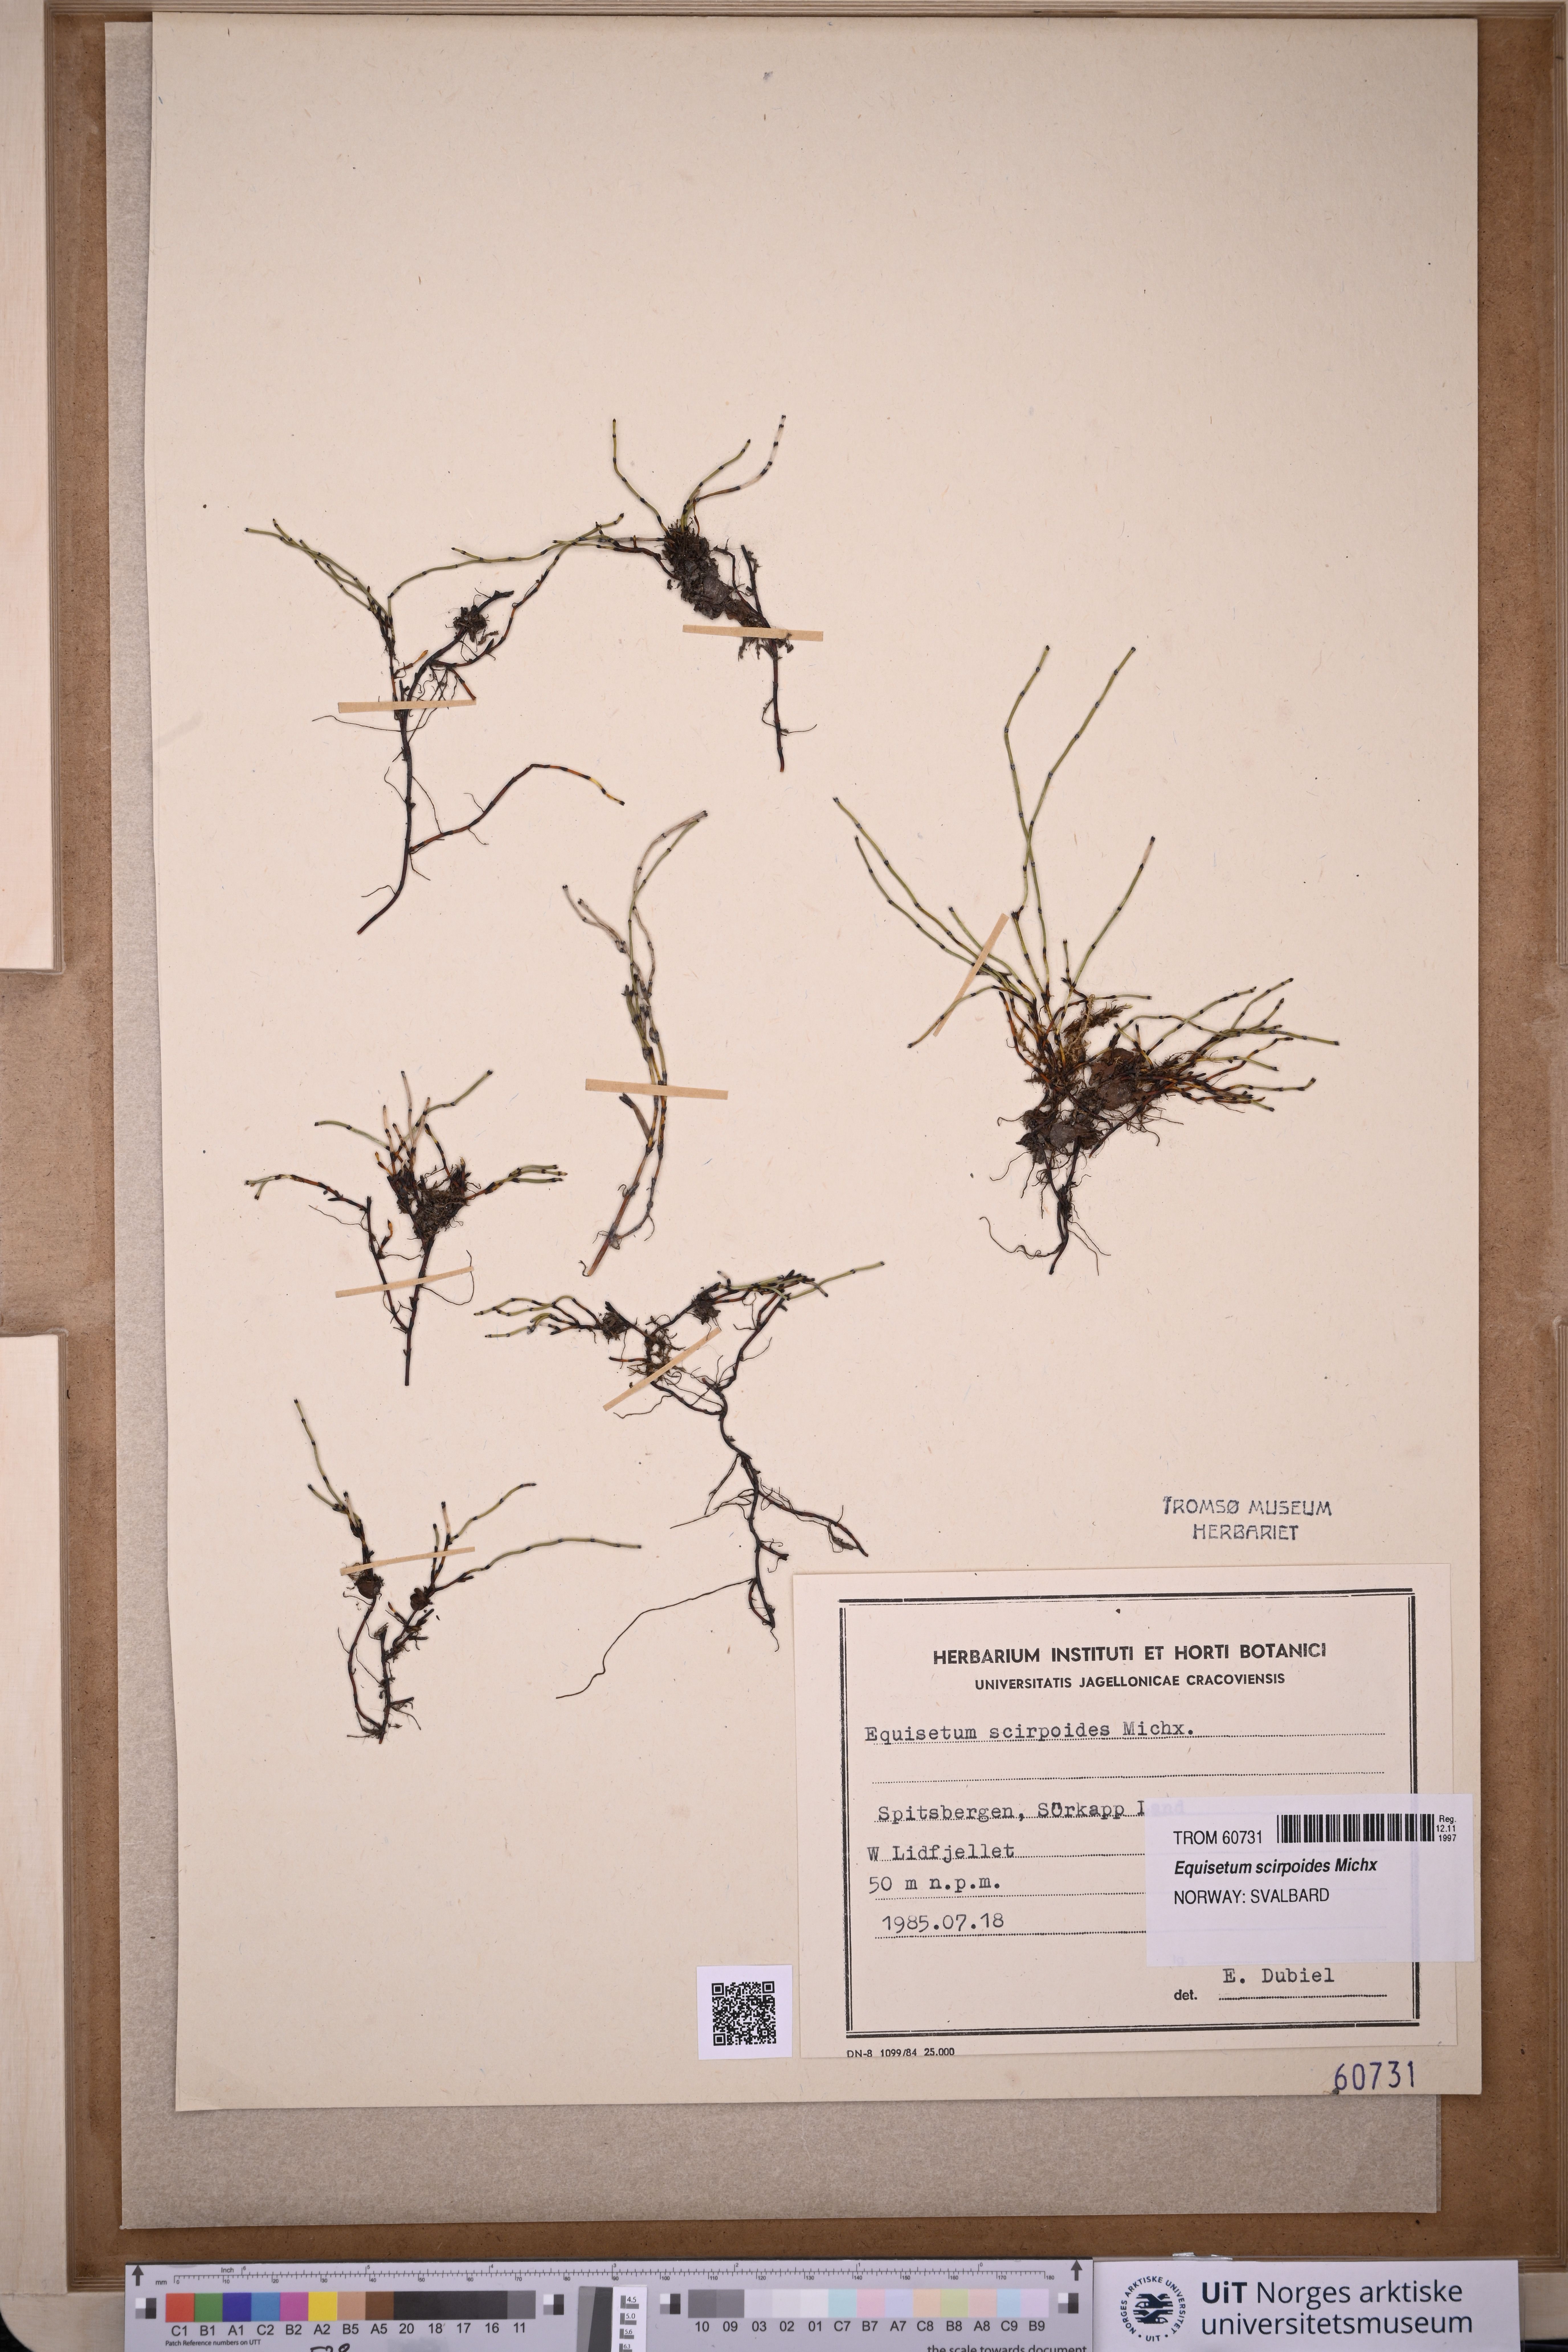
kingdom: Plantae
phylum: Tracheophyta
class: Polypodiopsida
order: Equisetales
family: Equisetaceae
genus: Equisetum
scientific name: Equisetum scirpoides
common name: Delicate horsetail
